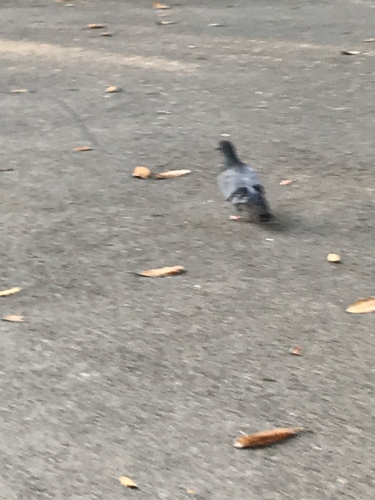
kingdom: Animalia
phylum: Chordata
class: Aves
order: Columbiformes
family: Columbidae
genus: Columba
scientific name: Columba livia
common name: Rock pigeon
